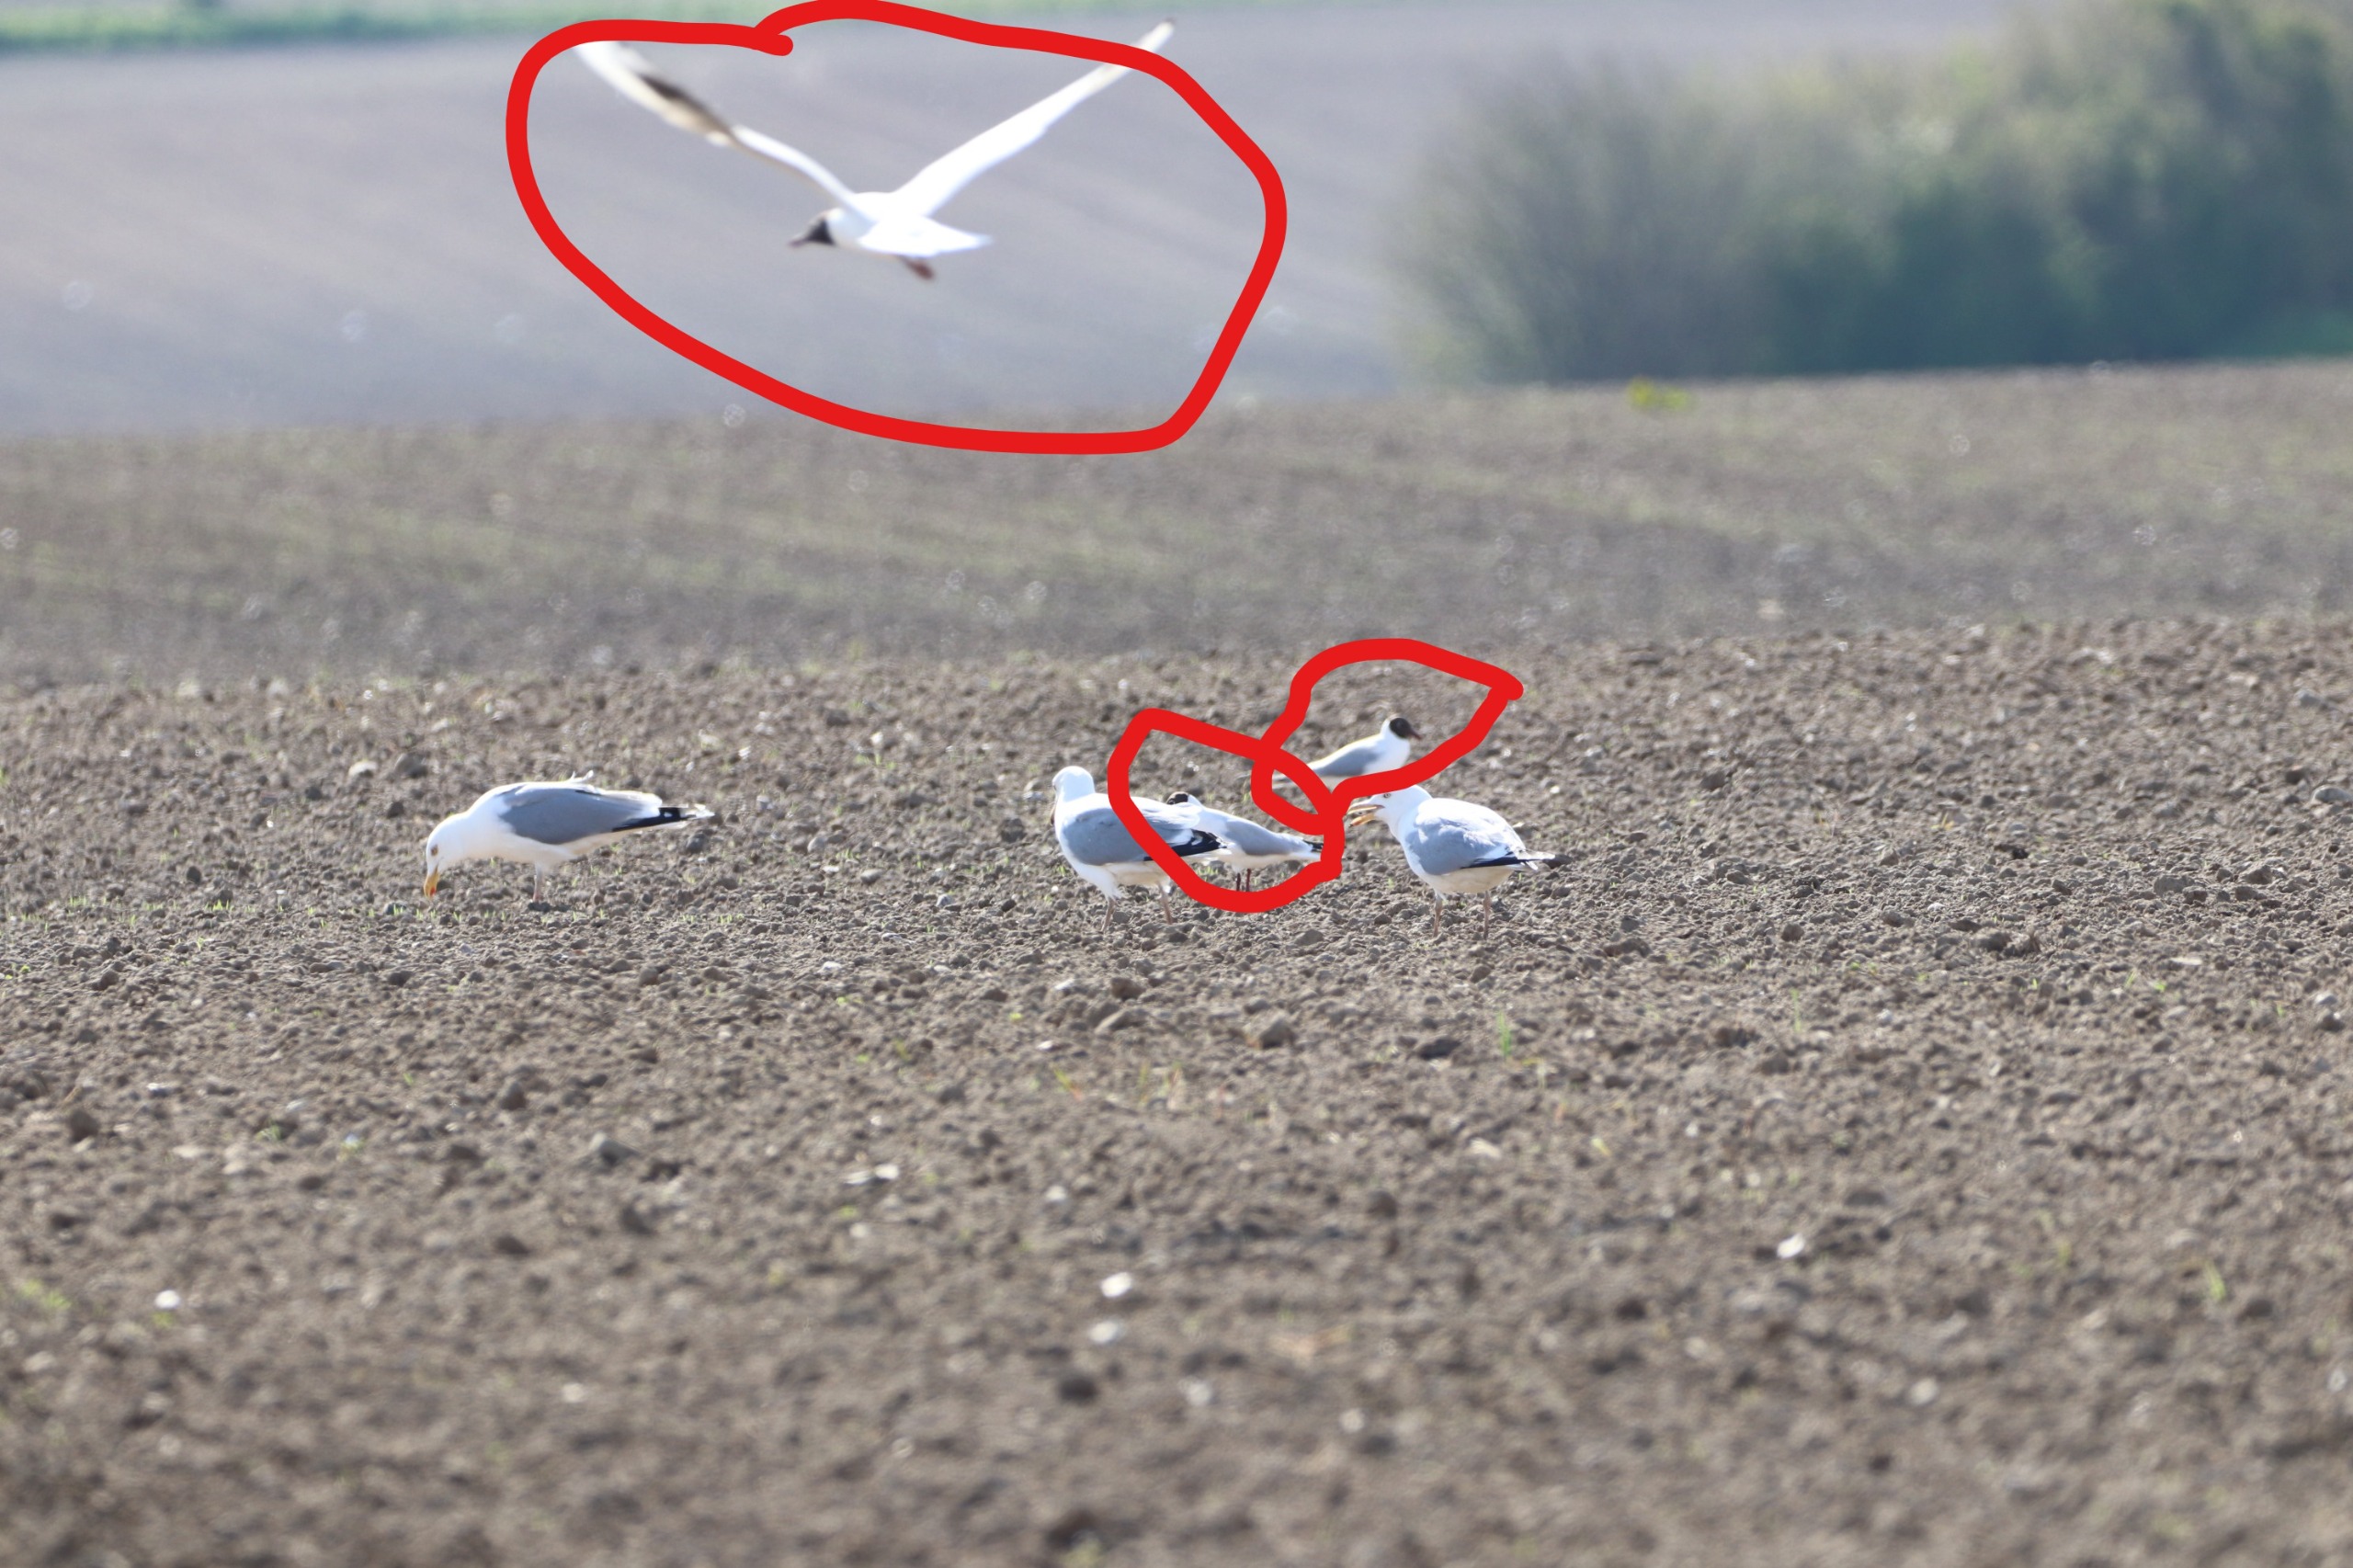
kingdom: Animalia
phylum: Chordata
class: Aves
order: Charadriiformes
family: Laridae
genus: Chroicocephalus
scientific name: Chroicocephalus ridibundus
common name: Hættemåge
